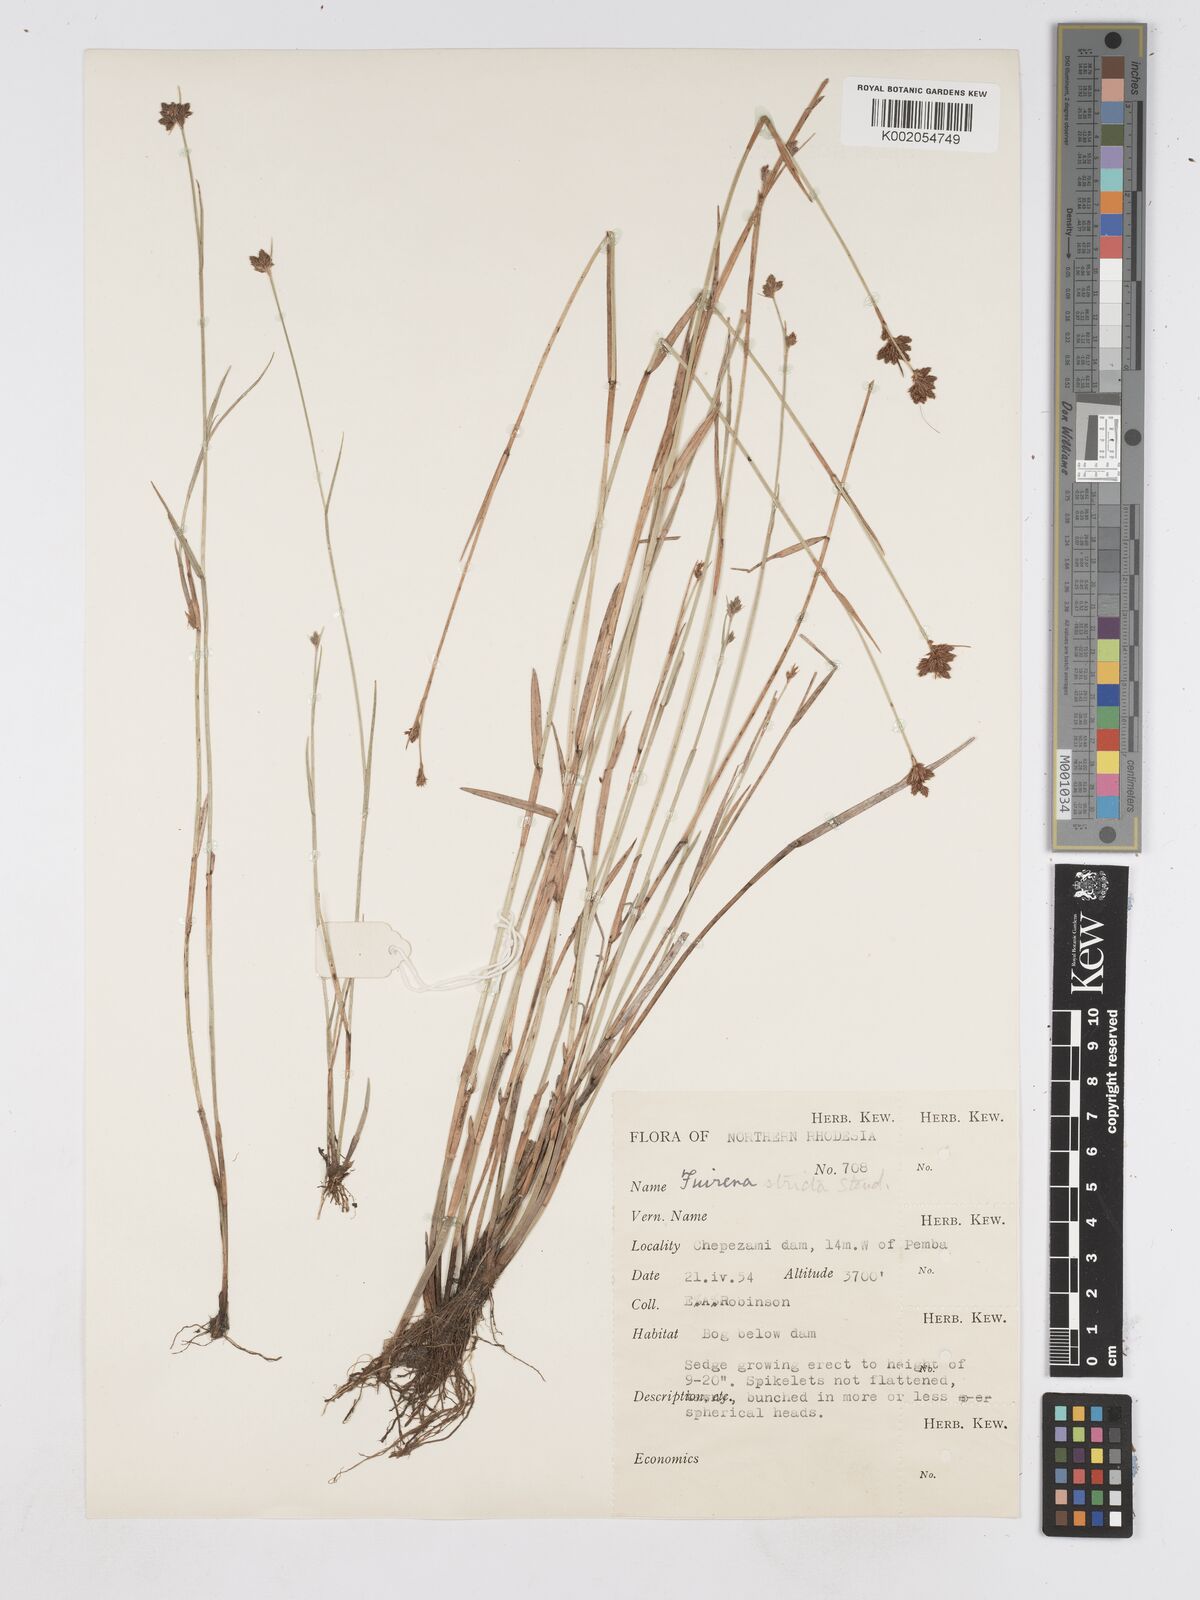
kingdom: Plantae
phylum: Tracheophyta
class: Liliopsida
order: Poales
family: Cyperaceae
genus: Fuirena
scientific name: Fuirena stricta
